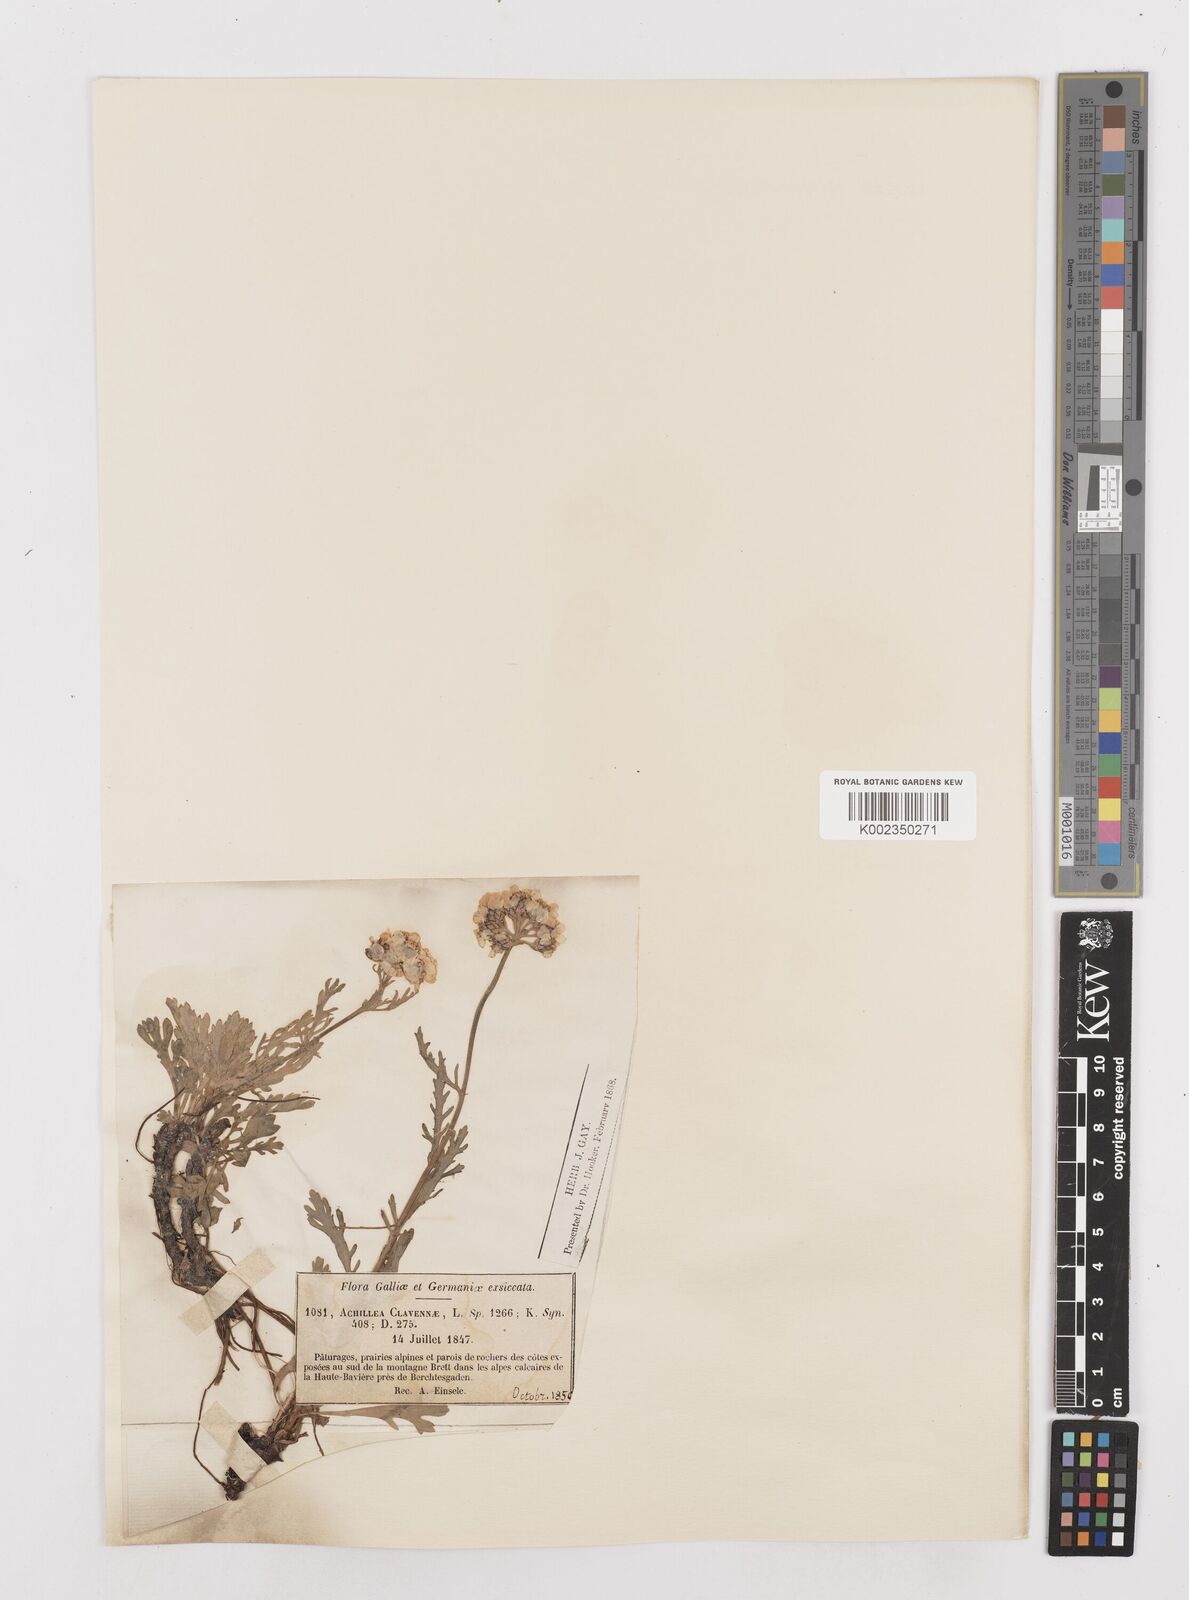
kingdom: Plantae
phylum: Tracheophyta
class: Magnoliopsida
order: Asterales
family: Asteraceae
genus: Achillea
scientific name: Achillea clavennae
